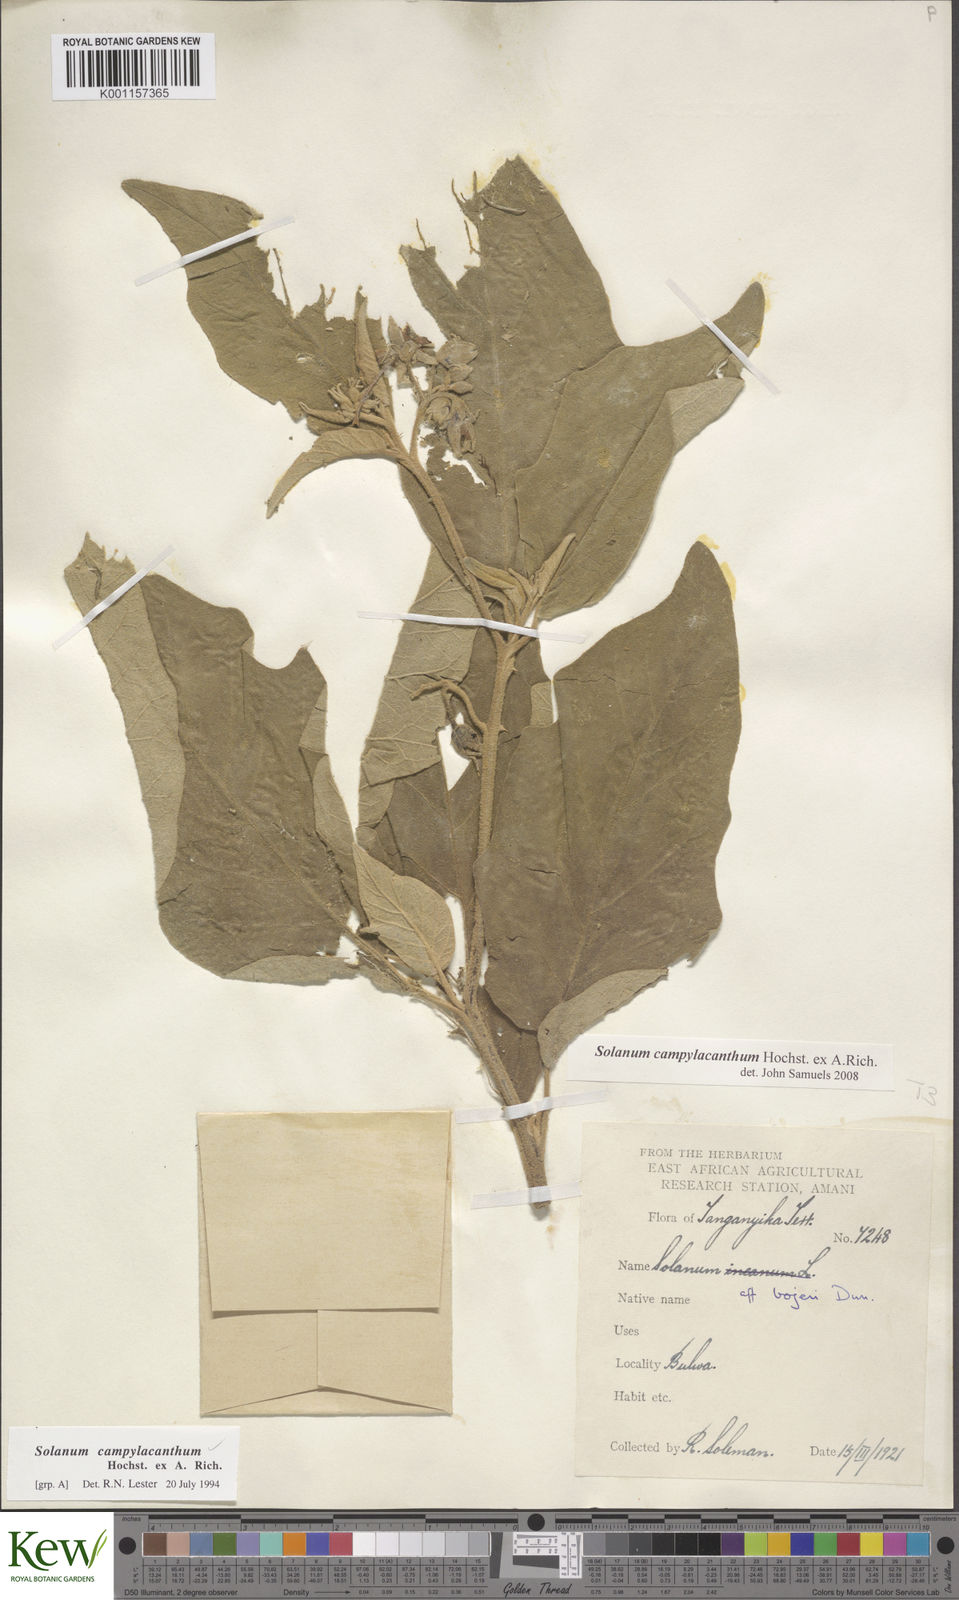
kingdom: Plantae
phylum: Tracheophyta
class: Magnoliopsida
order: Solanales
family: Solanaceae
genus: Solanum
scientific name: Solanum campylacanthum
